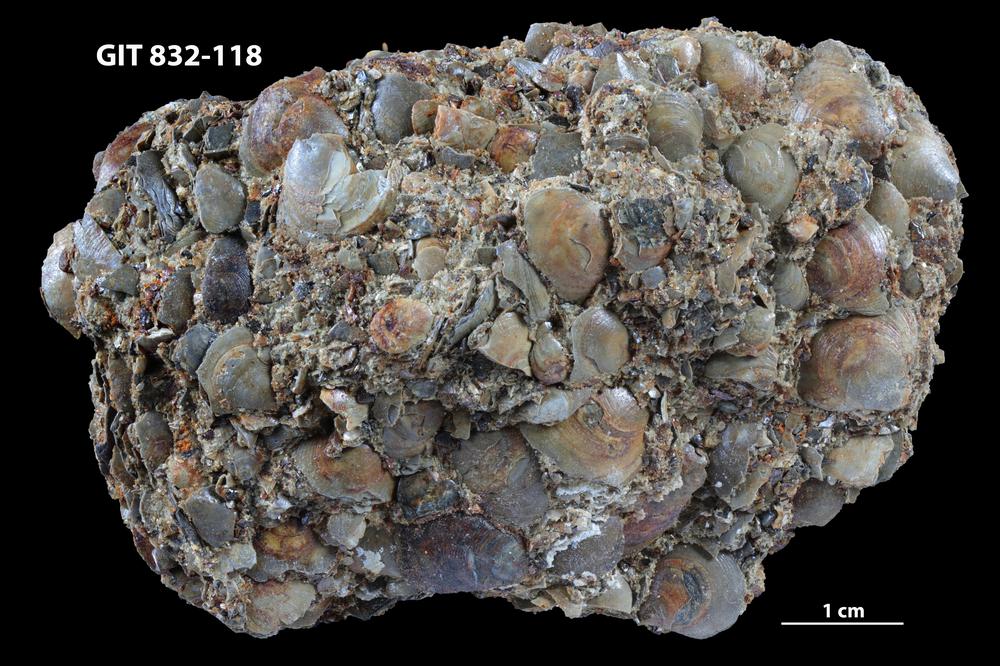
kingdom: Animalia
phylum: Brachiopoda
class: Lingulata
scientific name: Lingulata
